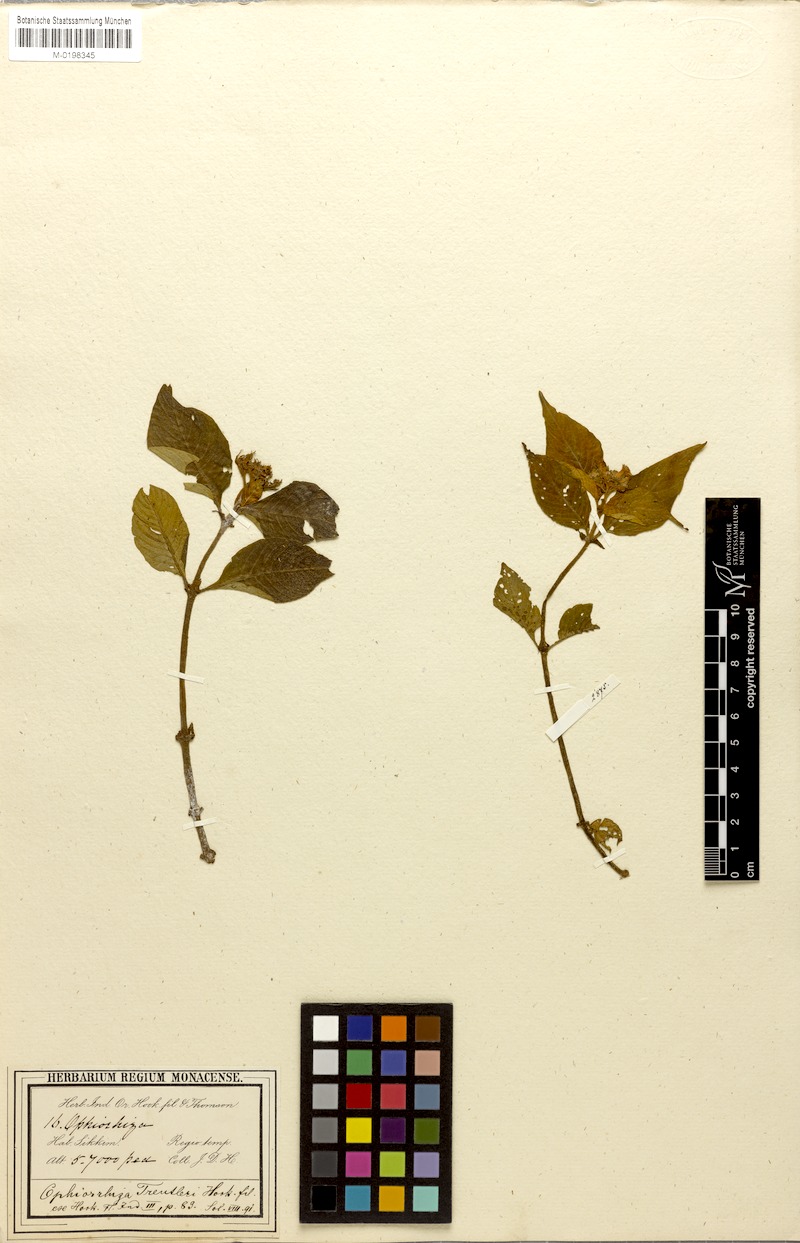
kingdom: Plantae
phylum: Tracheophyta
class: Magnoliopsida
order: Gentianales
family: Rubiaceae
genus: Ophiorrhiza
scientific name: Ophiorrhiza treutleri
